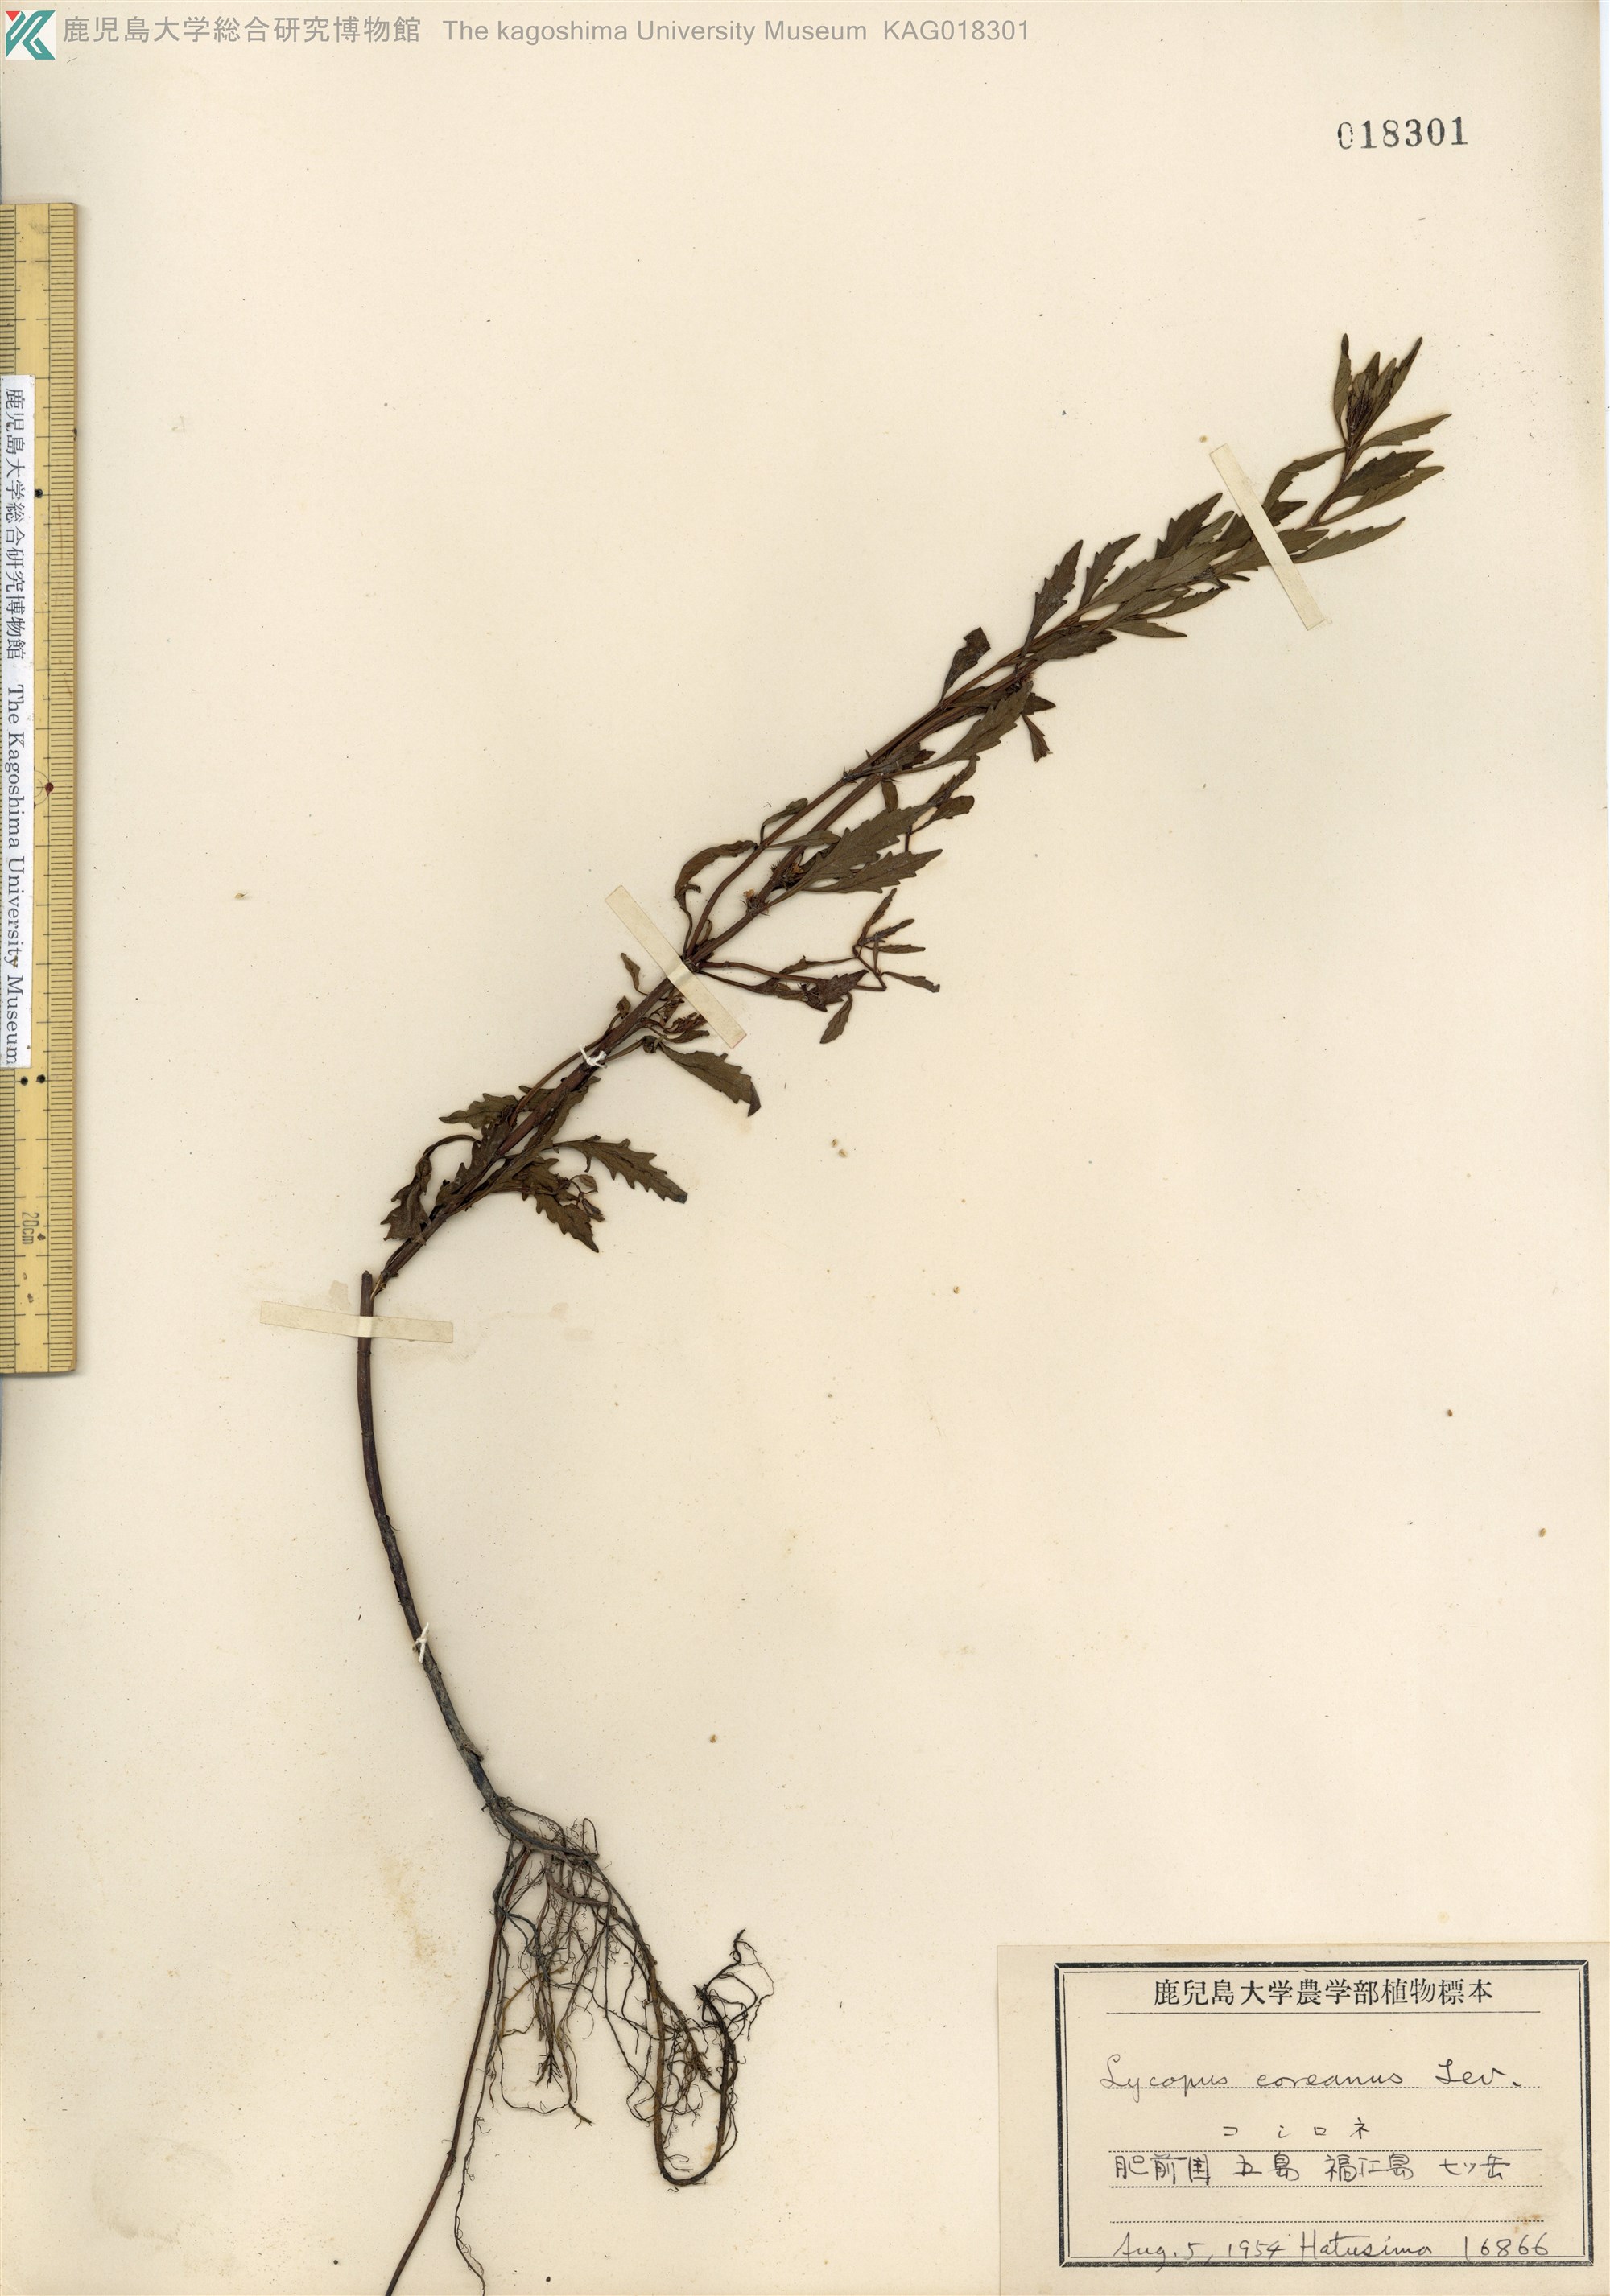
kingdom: Plantae
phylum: Tracheophyta
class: Magnoliopsida
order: Lamiales
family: Lamiaceae
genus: Lycopus
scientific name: Lycopus cavaleriei
